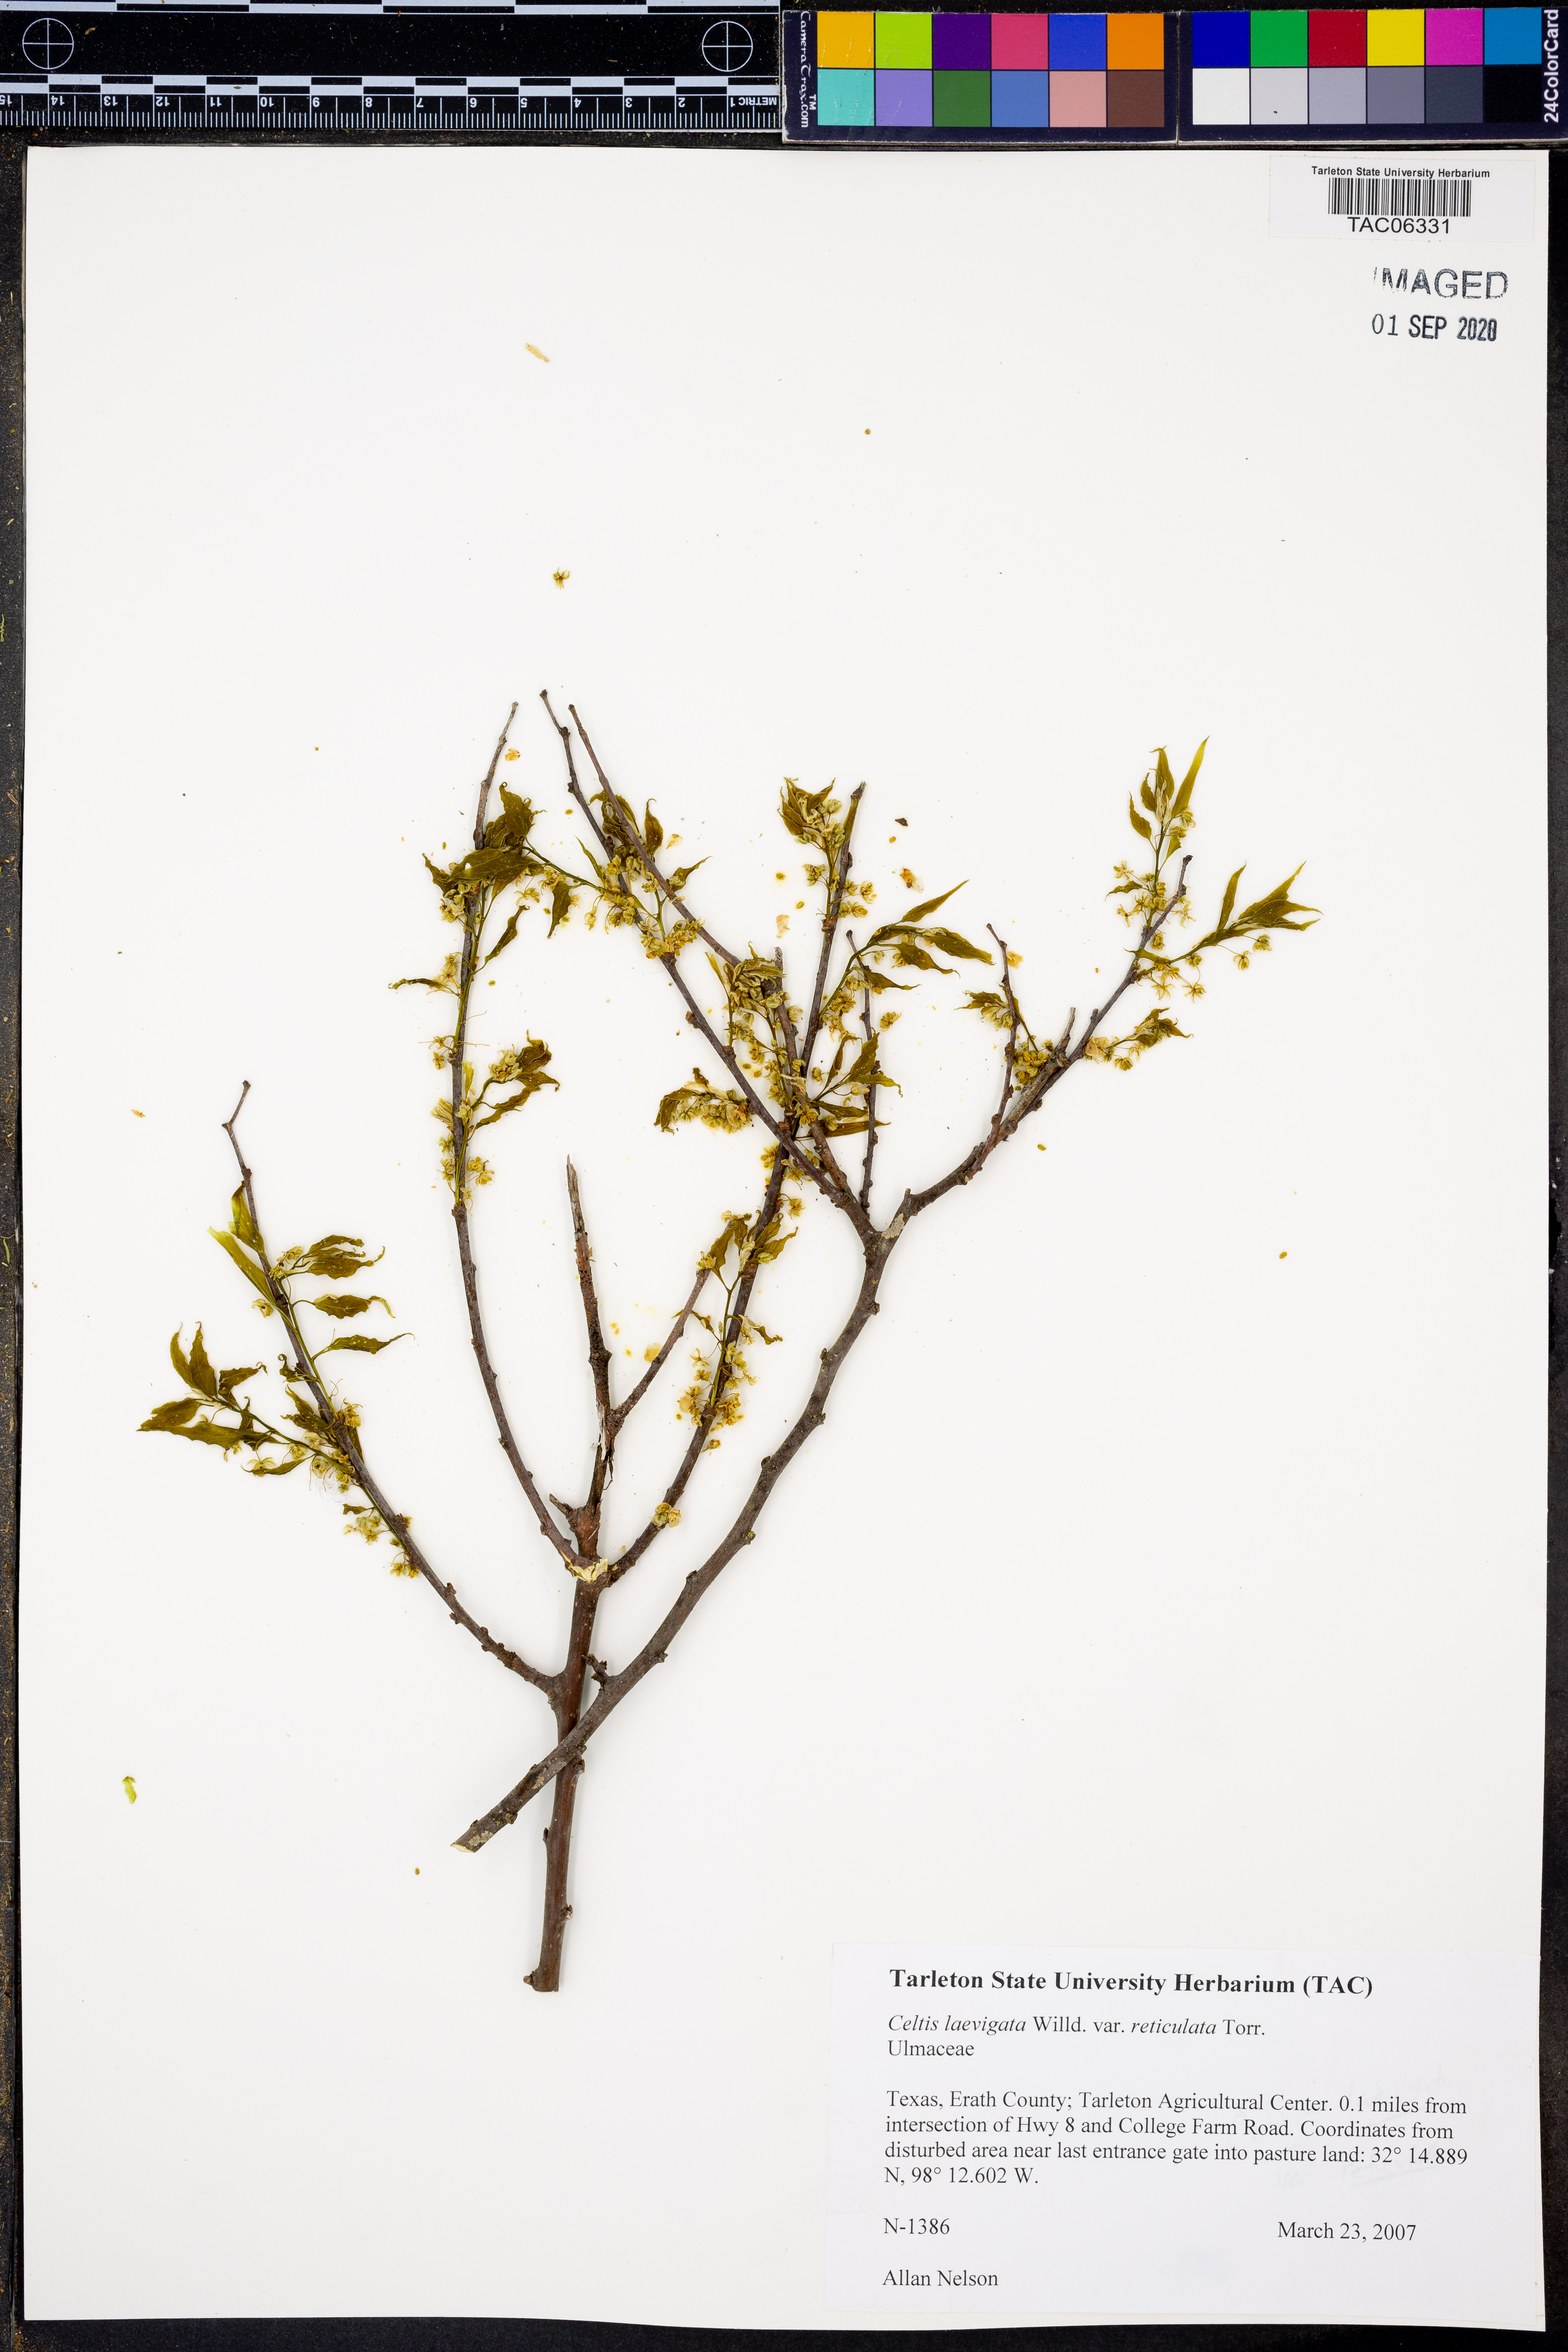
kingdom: Plantae
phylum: Tracheophyta
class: Magnoliopsida
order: Rosales
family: Cannabaceae
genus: Celtis
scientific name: Celtis reticulata
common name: Netleaf hackberry
